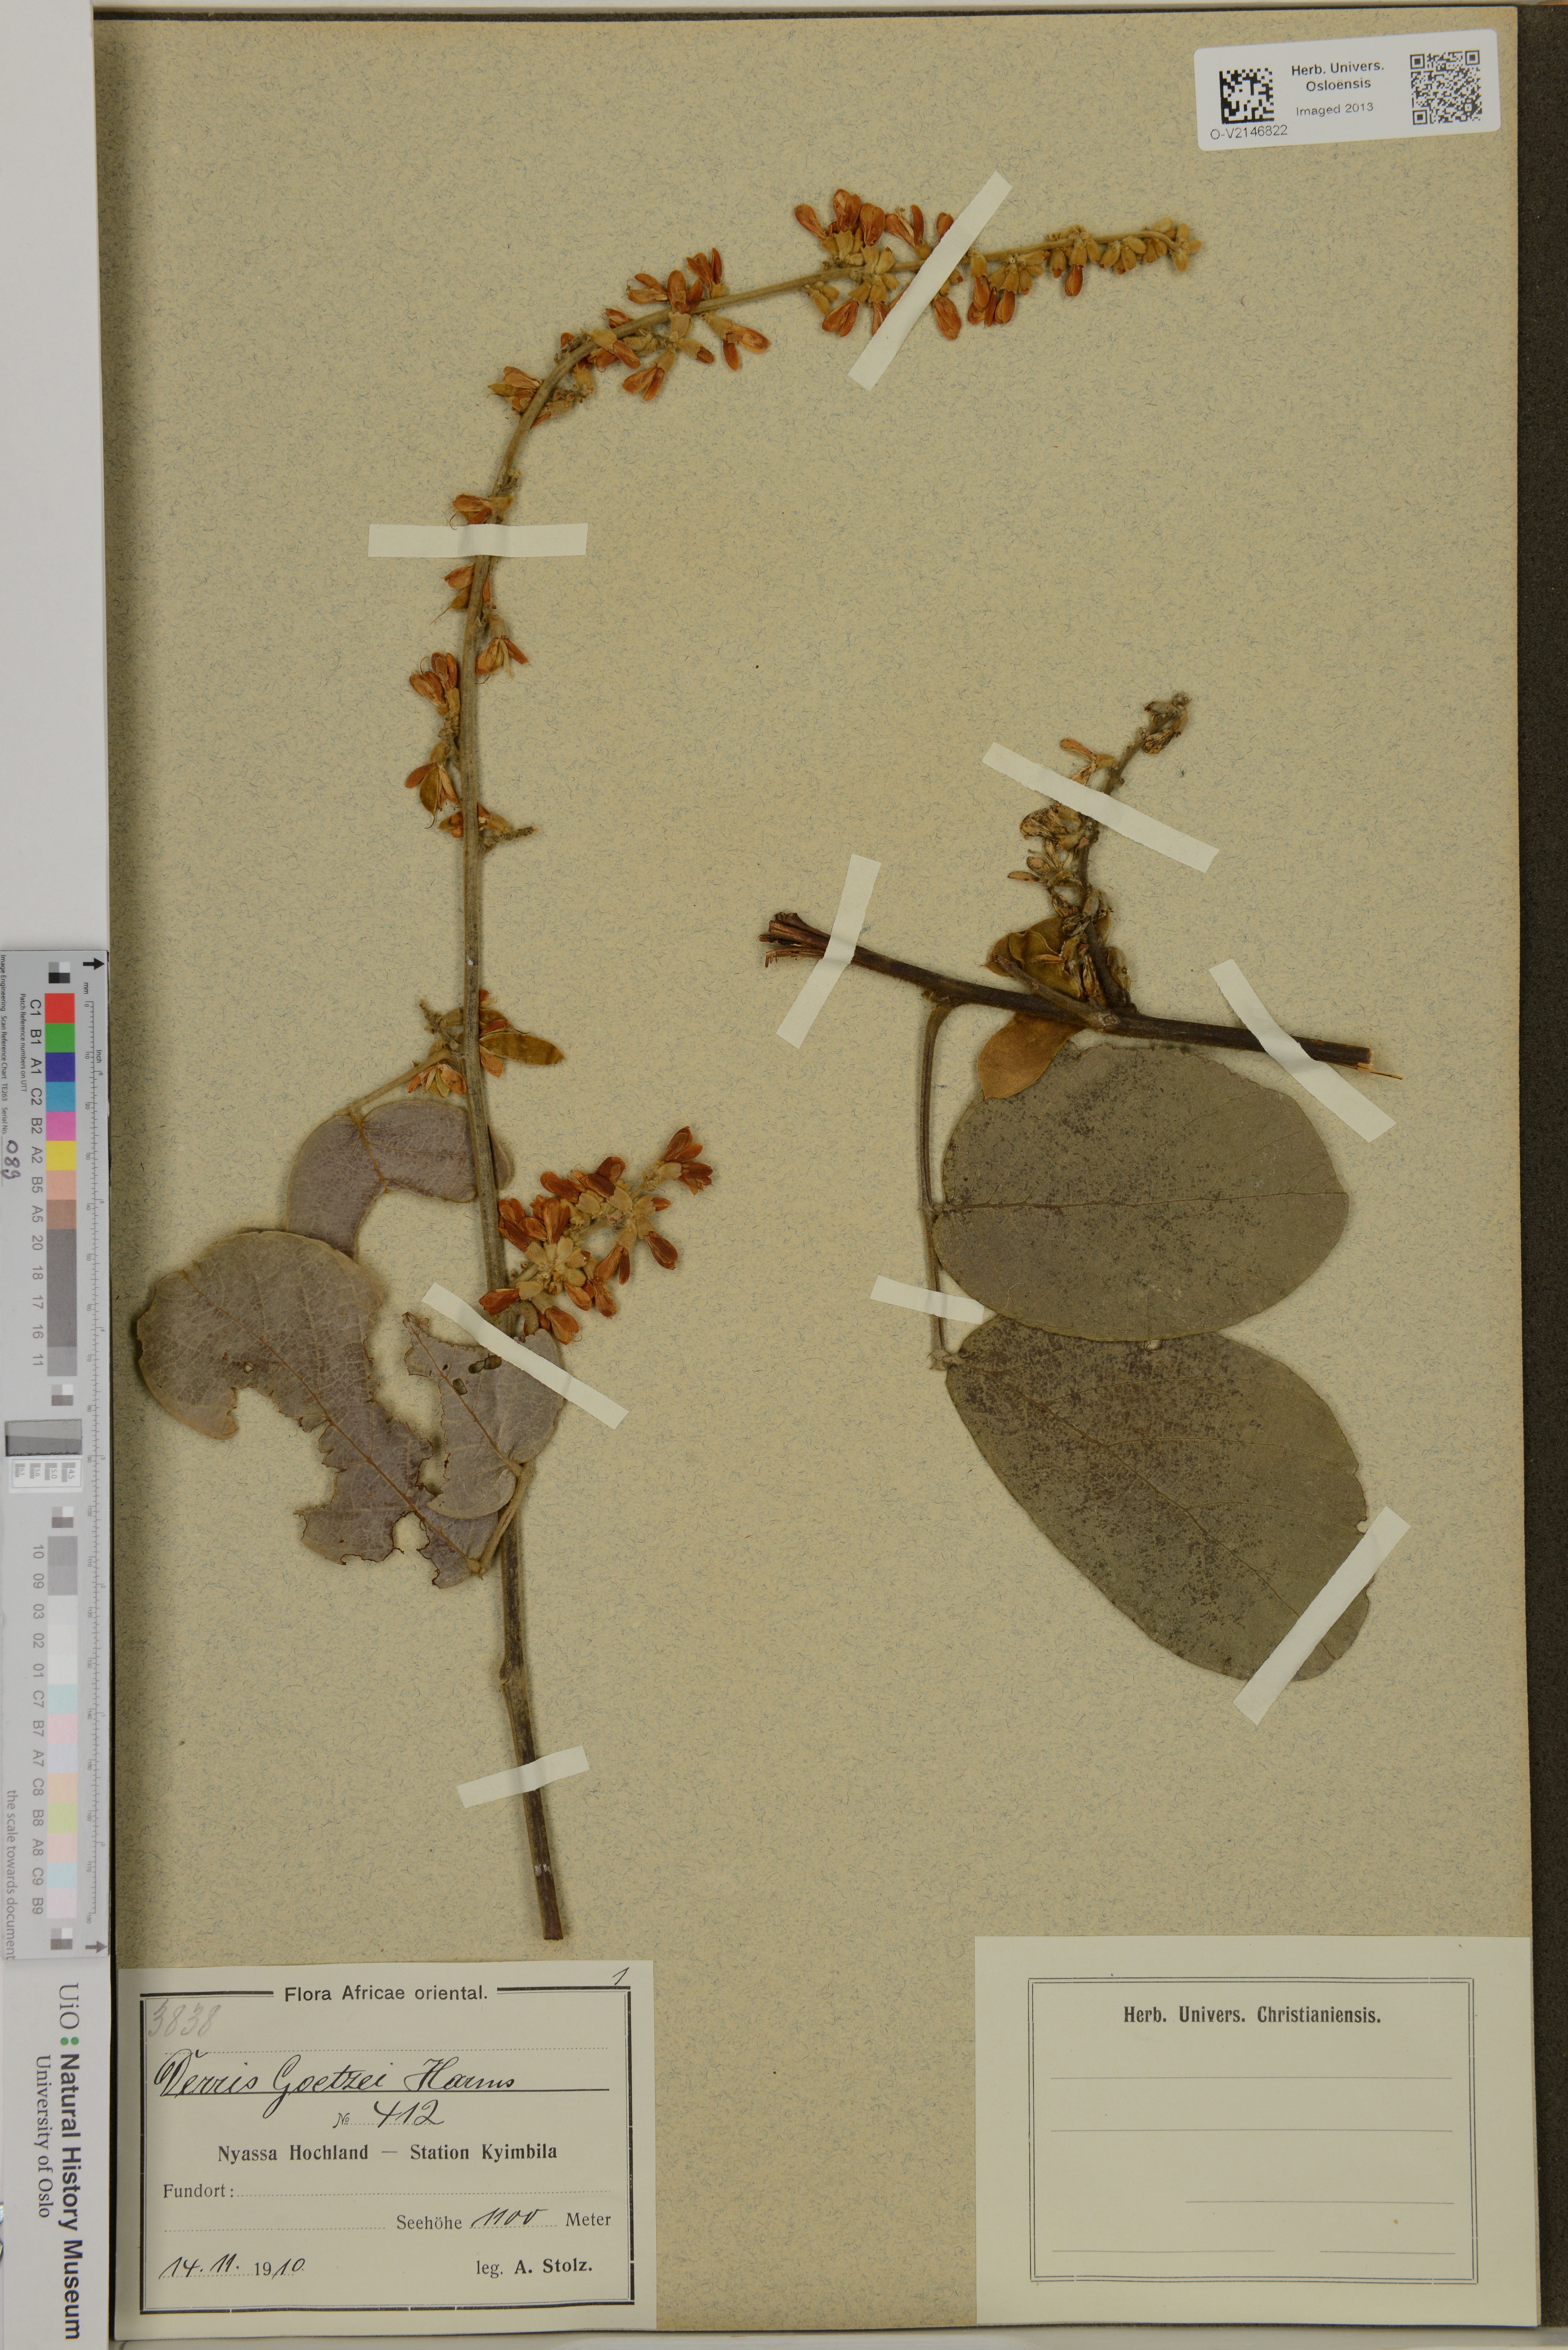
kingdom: Plantae
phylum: Tracheophyta
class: Magnoliopsida
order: Fabales
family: Fabaceae
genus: Leptoderris
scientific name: Leptoderris brachyptera
